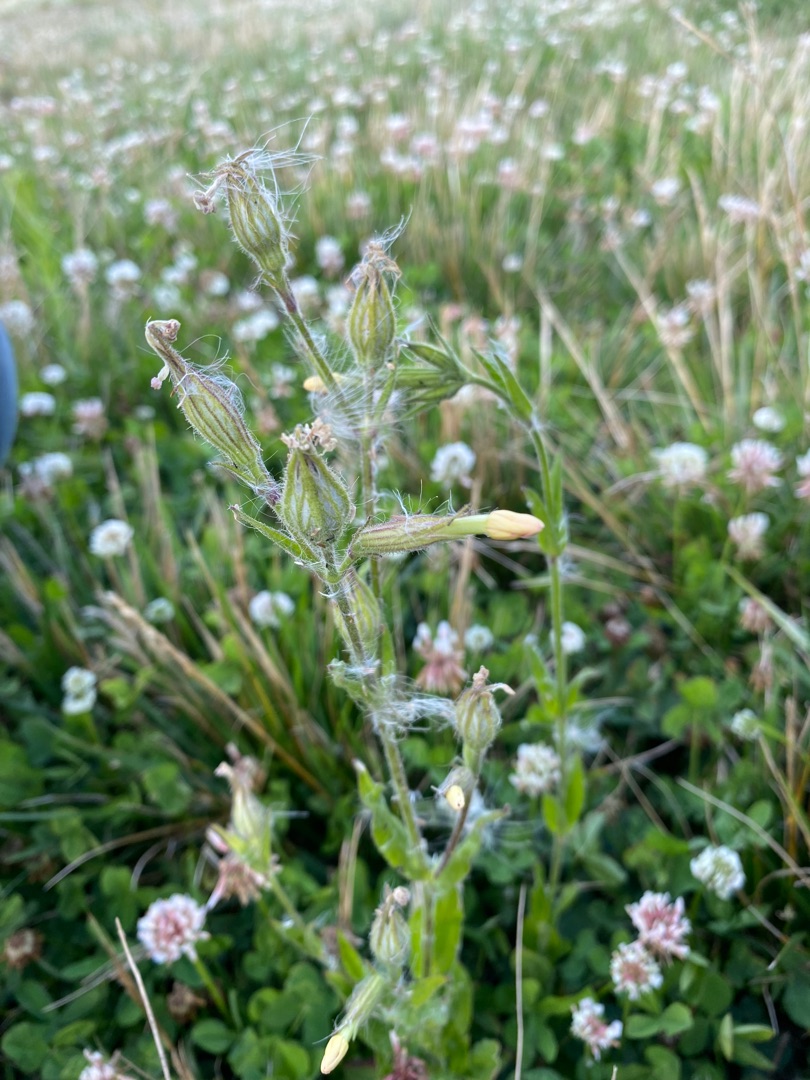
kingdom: Plantae
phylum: Tracheophyta
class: Magnoliopsida
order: Caryophyllales
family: Caryophyllaceae
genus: Silene
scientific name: Silene noctiflora
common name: Nat-limurt
